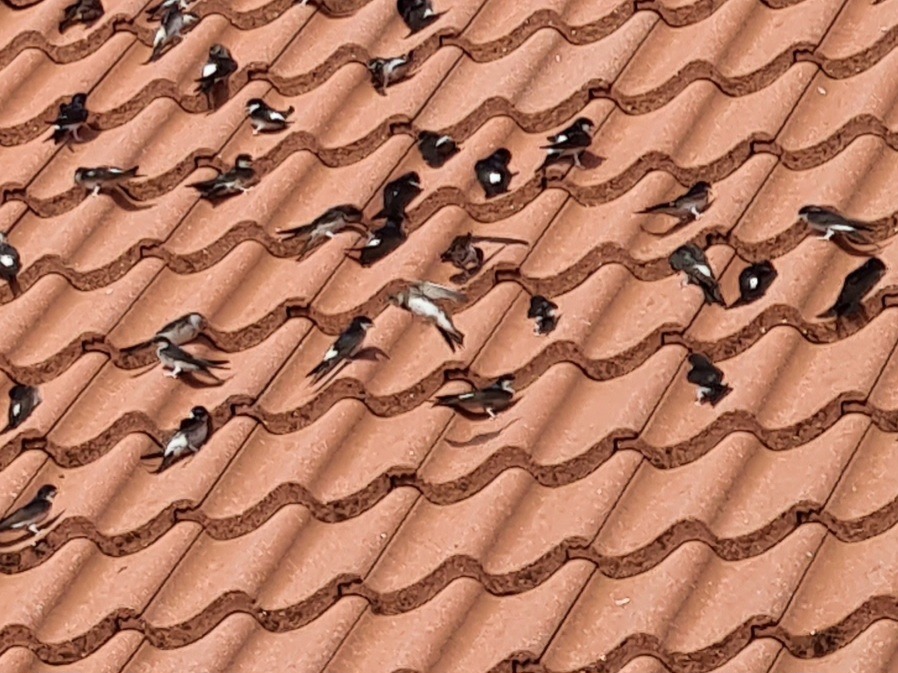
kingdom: Animalia
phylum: Chordata
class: Aves
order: Passeriformes
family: Hirundinidae
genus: Riparia
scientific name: Riparia riparia
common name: Digesvale
